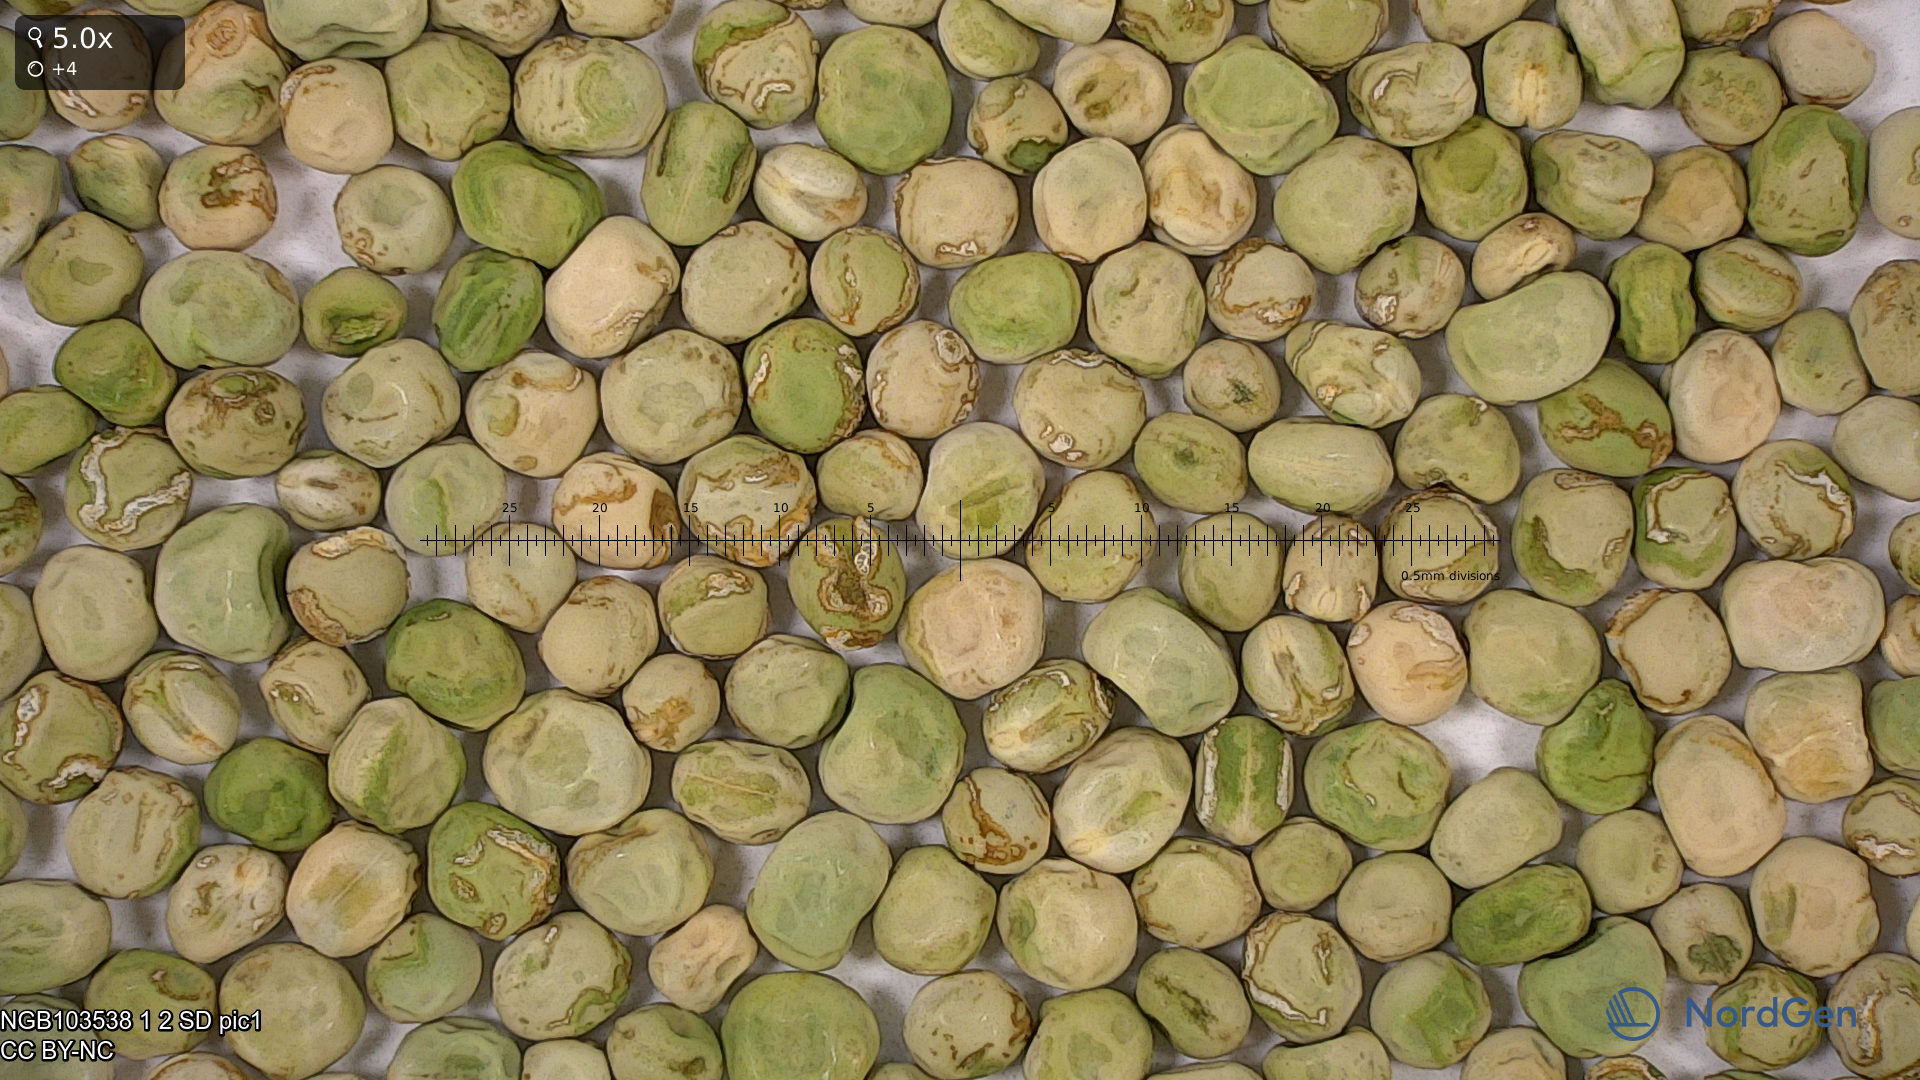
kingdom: Plantae
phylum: Tracheophyta
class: Magnoliopsida
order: Fabales
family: Fabaceae
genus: Lathyrus
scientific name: Lathyrus oleraceus
